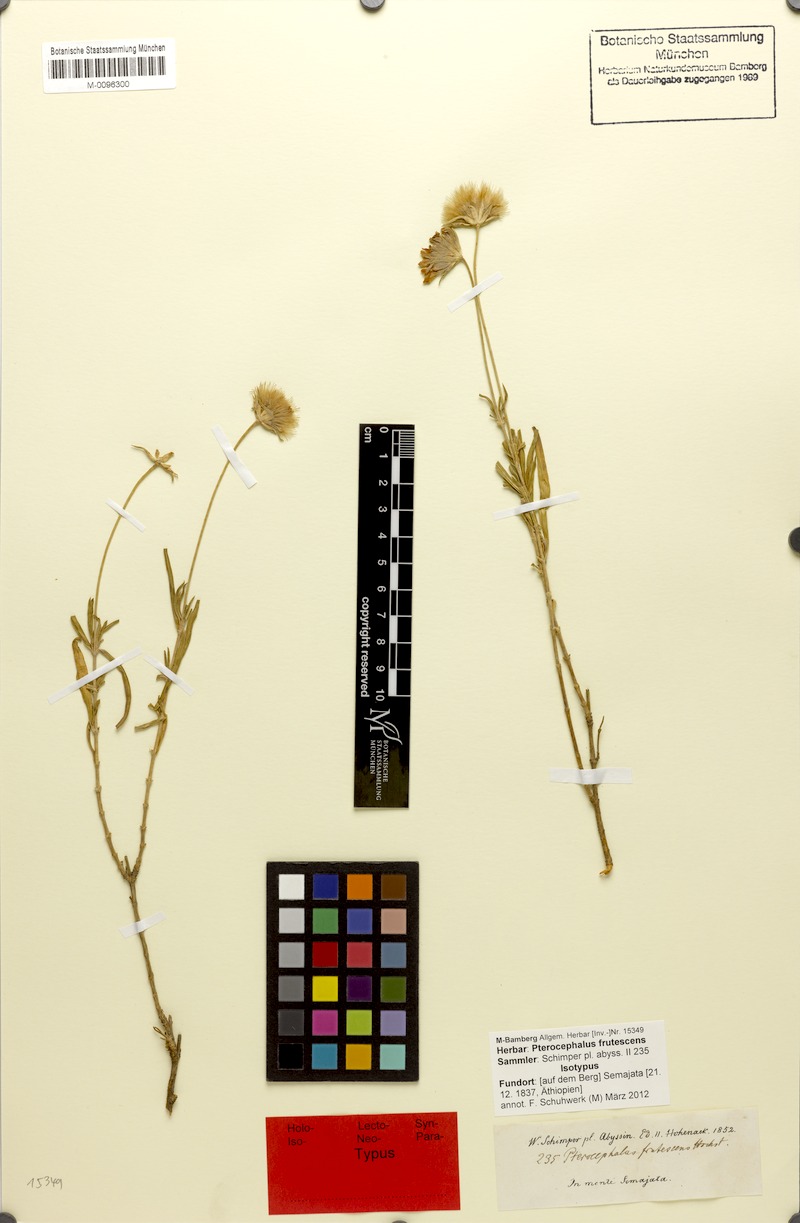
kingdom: Plantae
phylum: Tracheophyta
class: Magnoliopsida
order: Dipsacales
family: Caprifoliaceae
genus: Pterocephalus
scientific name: Pterocephalus frutescens
